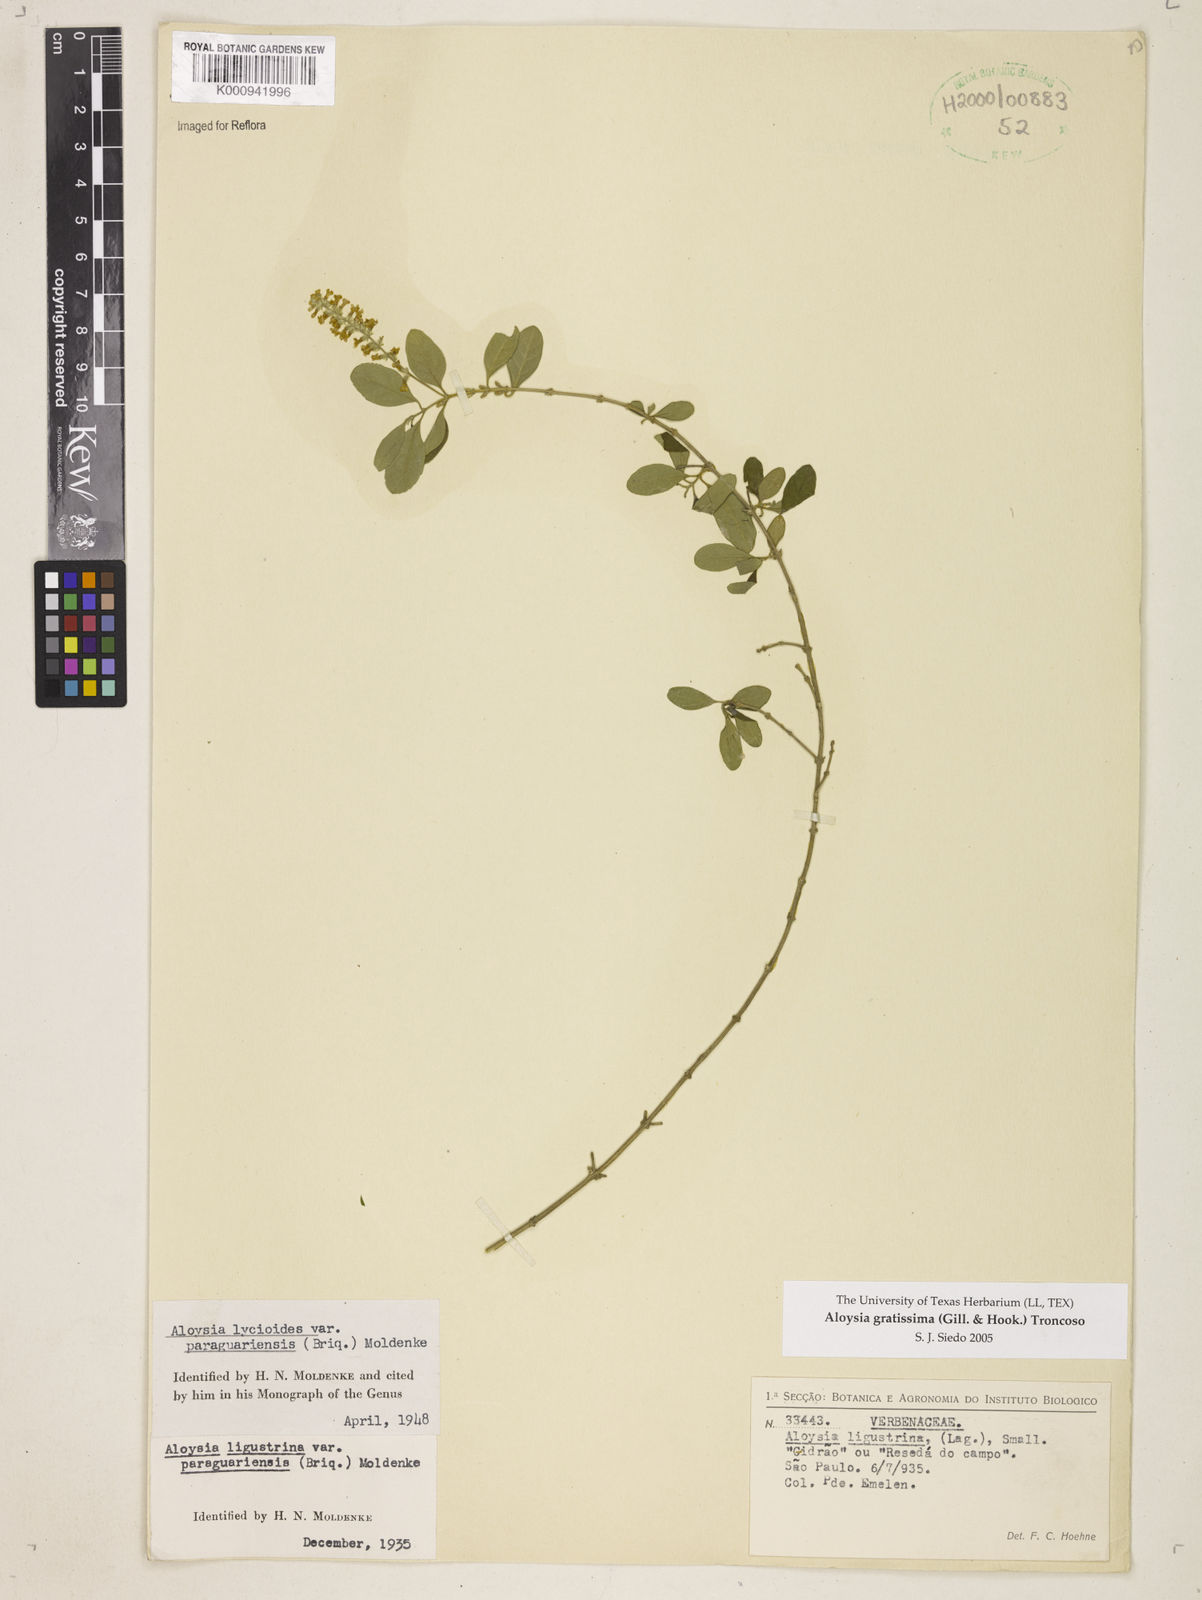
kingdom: Plantae
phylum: Tracheophyta
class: Magnoliopsida
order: Lamiales
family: Verbenaceae
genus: Aloysia
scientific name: Aloysia gratissima
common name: Common bee-brush
